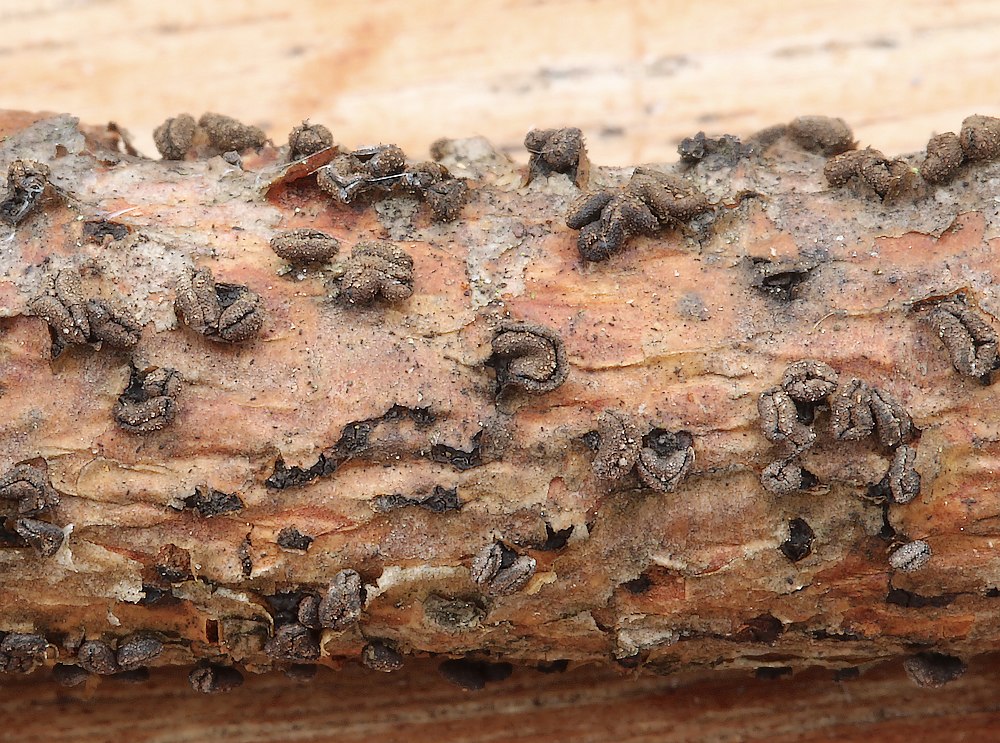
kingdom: Fungi
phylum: Ascomycota
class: Leotiomycetes
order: Helotiales
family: Cenangiaceae
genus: Cenangium
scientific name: Cenangium ferruginosum
